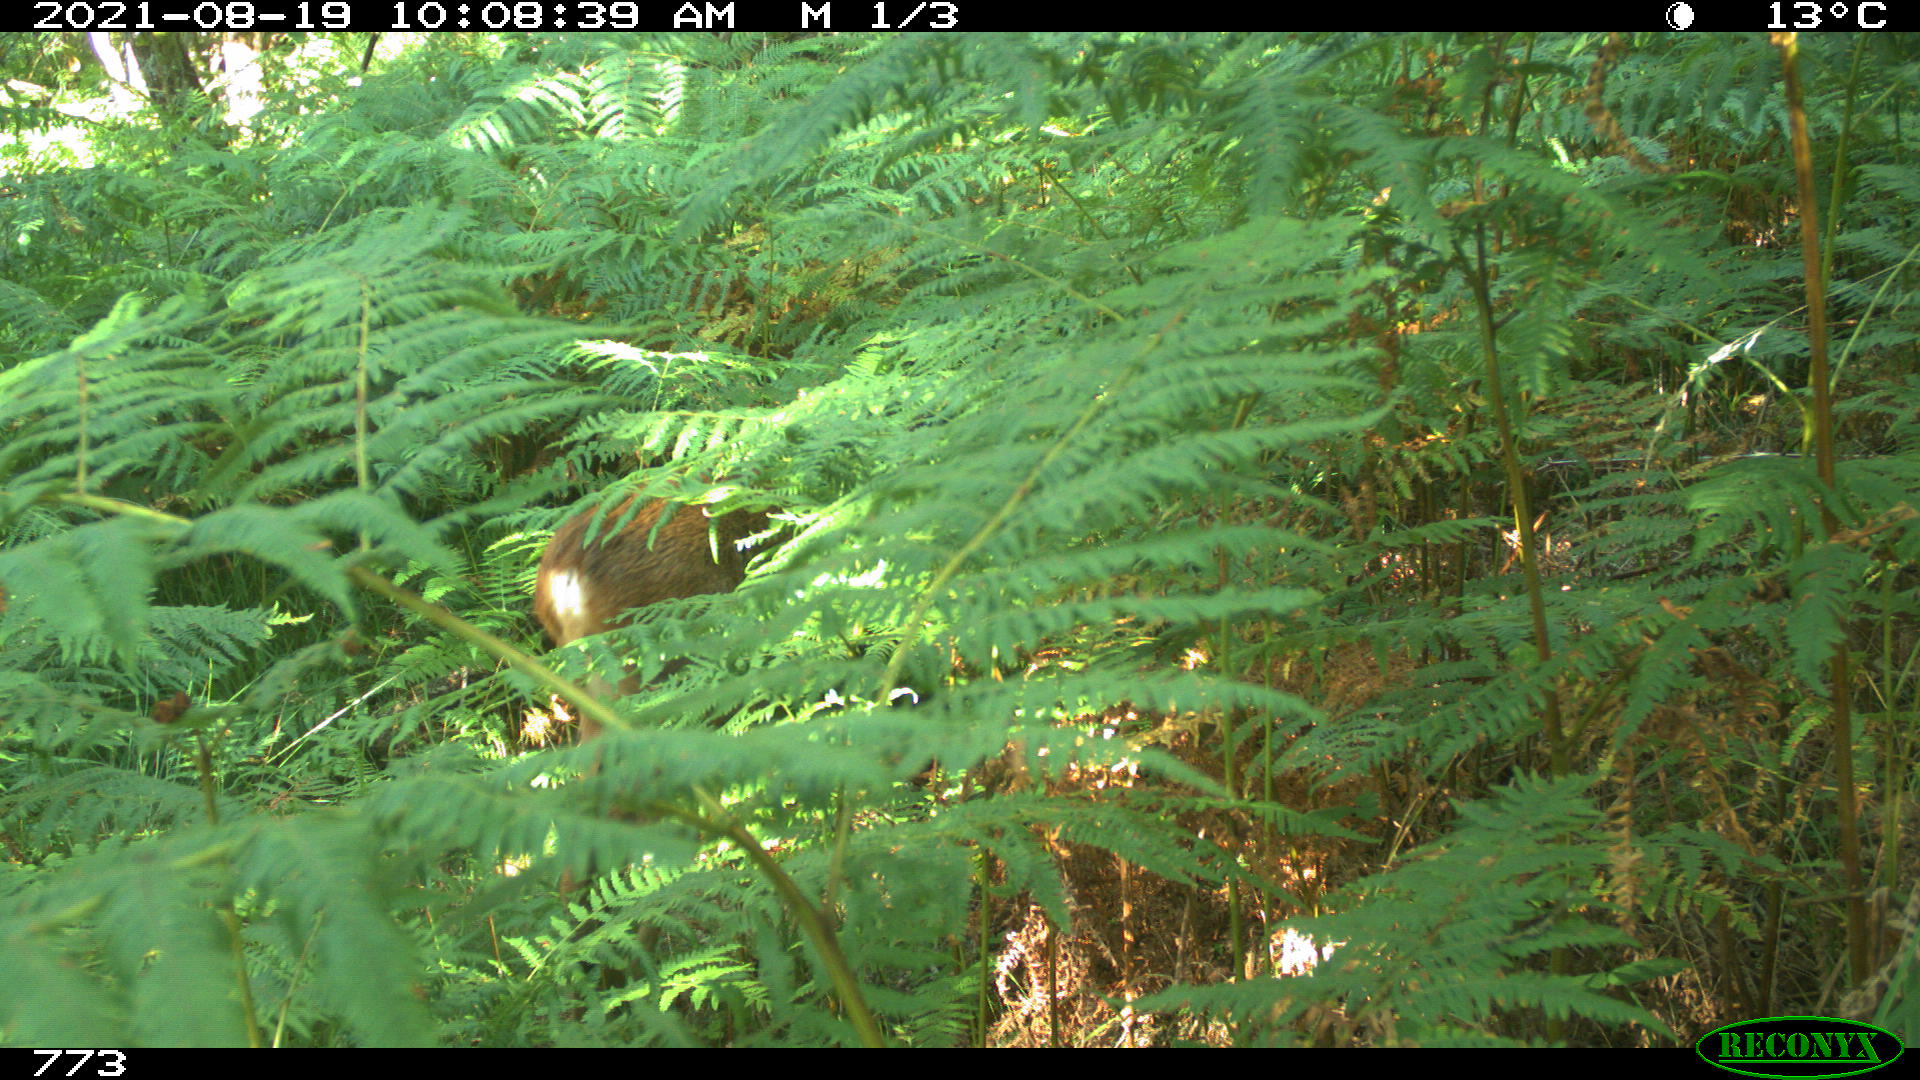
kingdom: Animalia
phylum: Chordata
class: Mammalia
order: Artiodactyla
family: Cervidae
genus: Capreolus
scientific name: Capreolus capreolus
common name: Western roe deer
